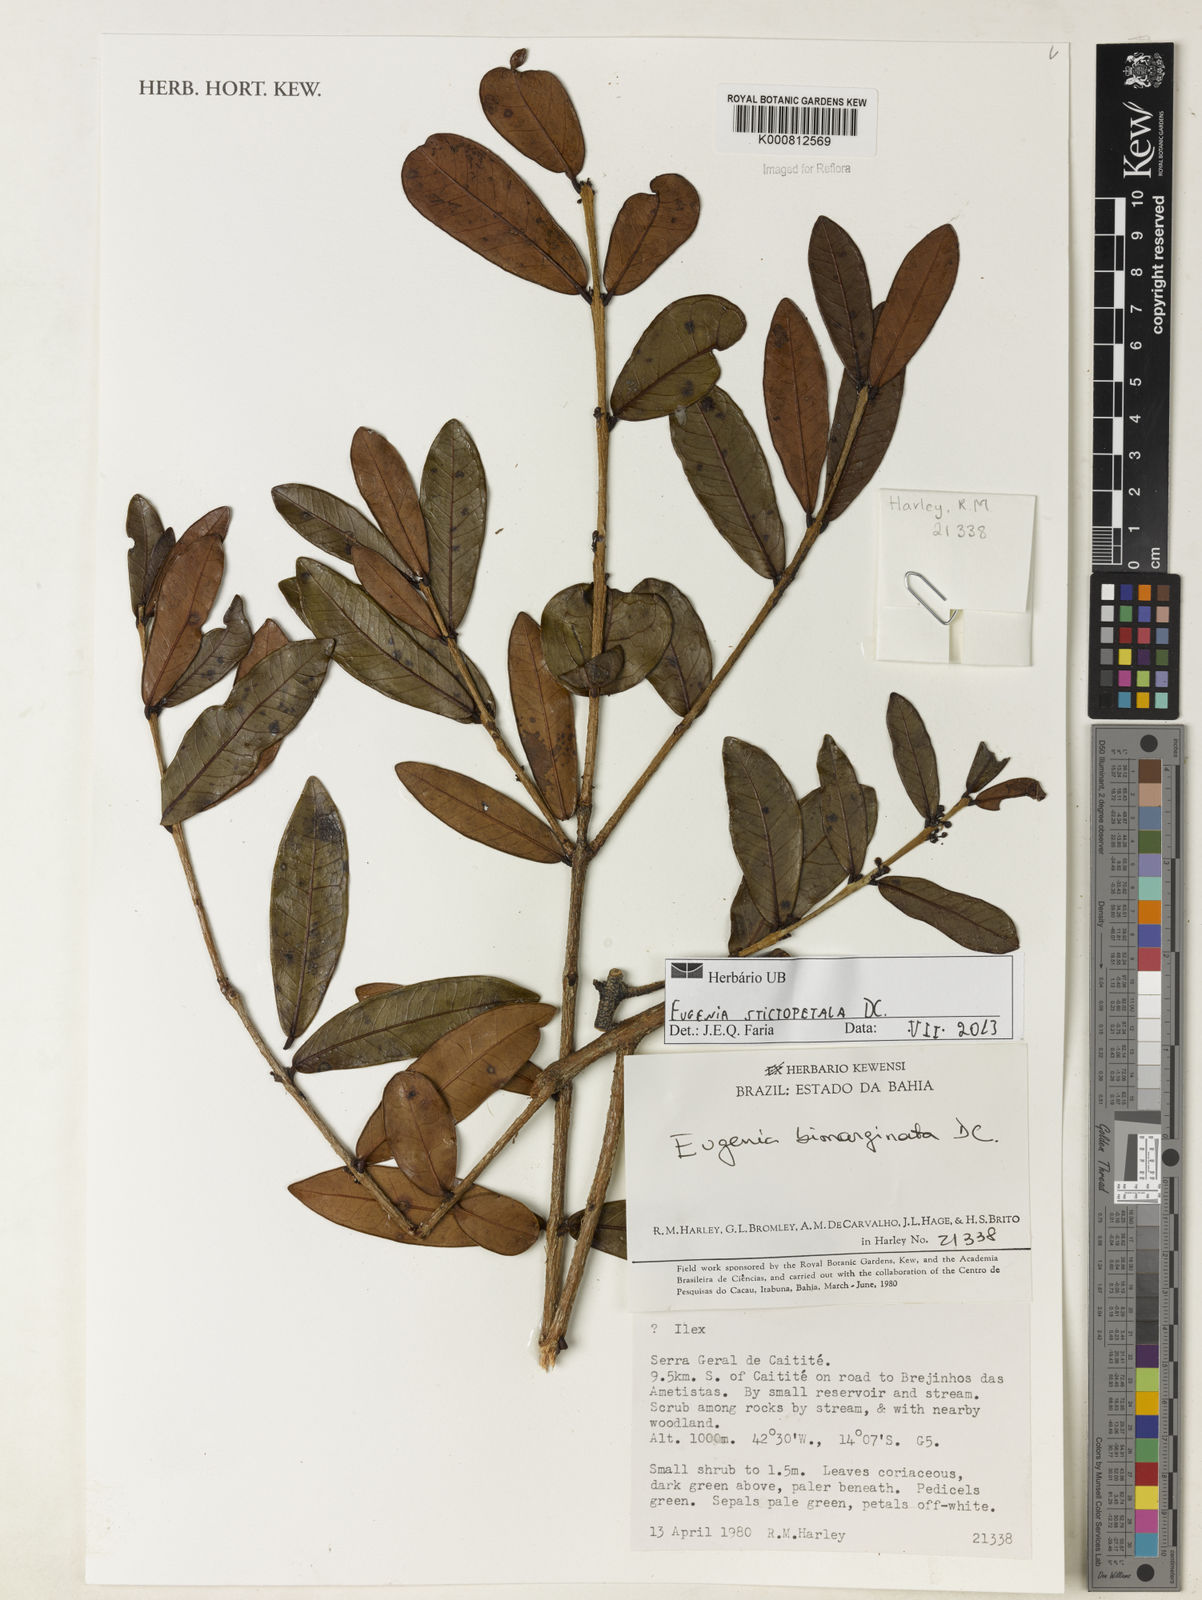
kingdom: Plantae
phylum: Tracheophyta
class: Magnoliopsida
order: Myrtales
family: Myrtaceae
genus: Eugenia
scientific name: Eugenia stictopetala
